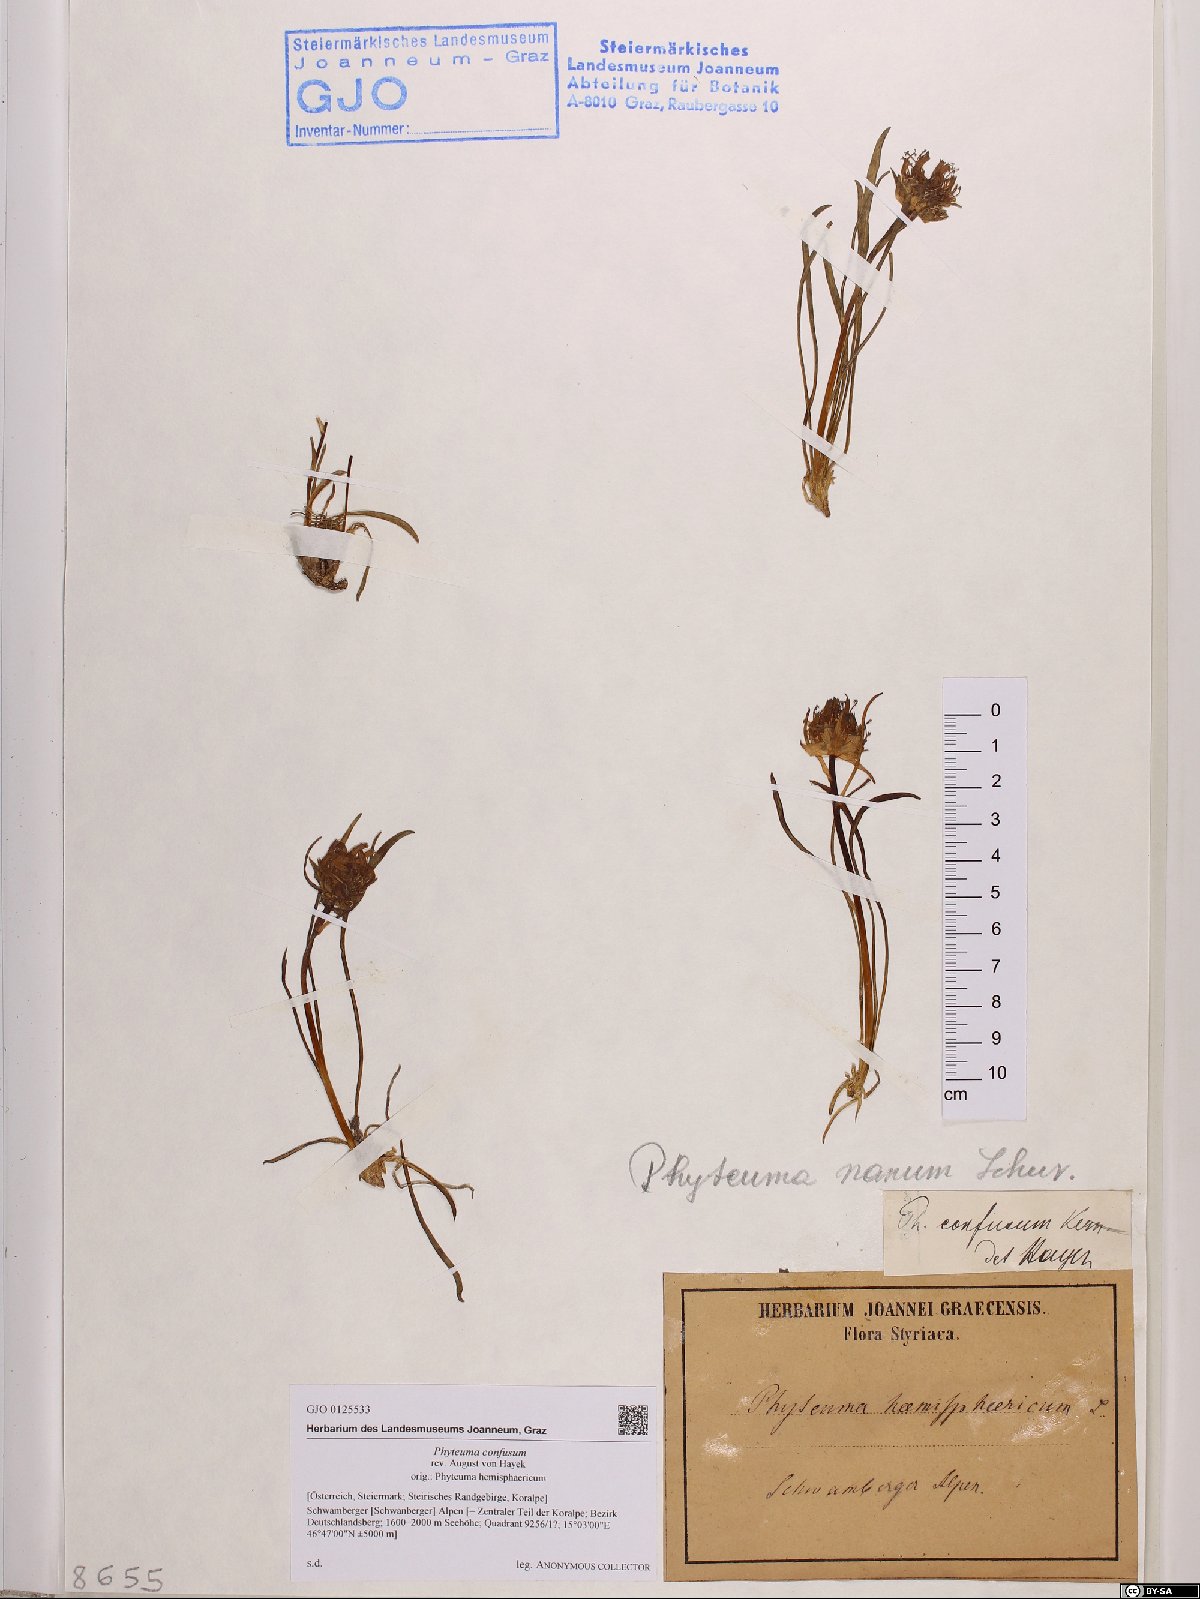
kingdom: Plantae
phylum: Tracheophyta
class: Magnoliopsida
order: Asterales
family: Campanulaceae
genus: Phyteuma
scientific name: Phyteuma confusum
